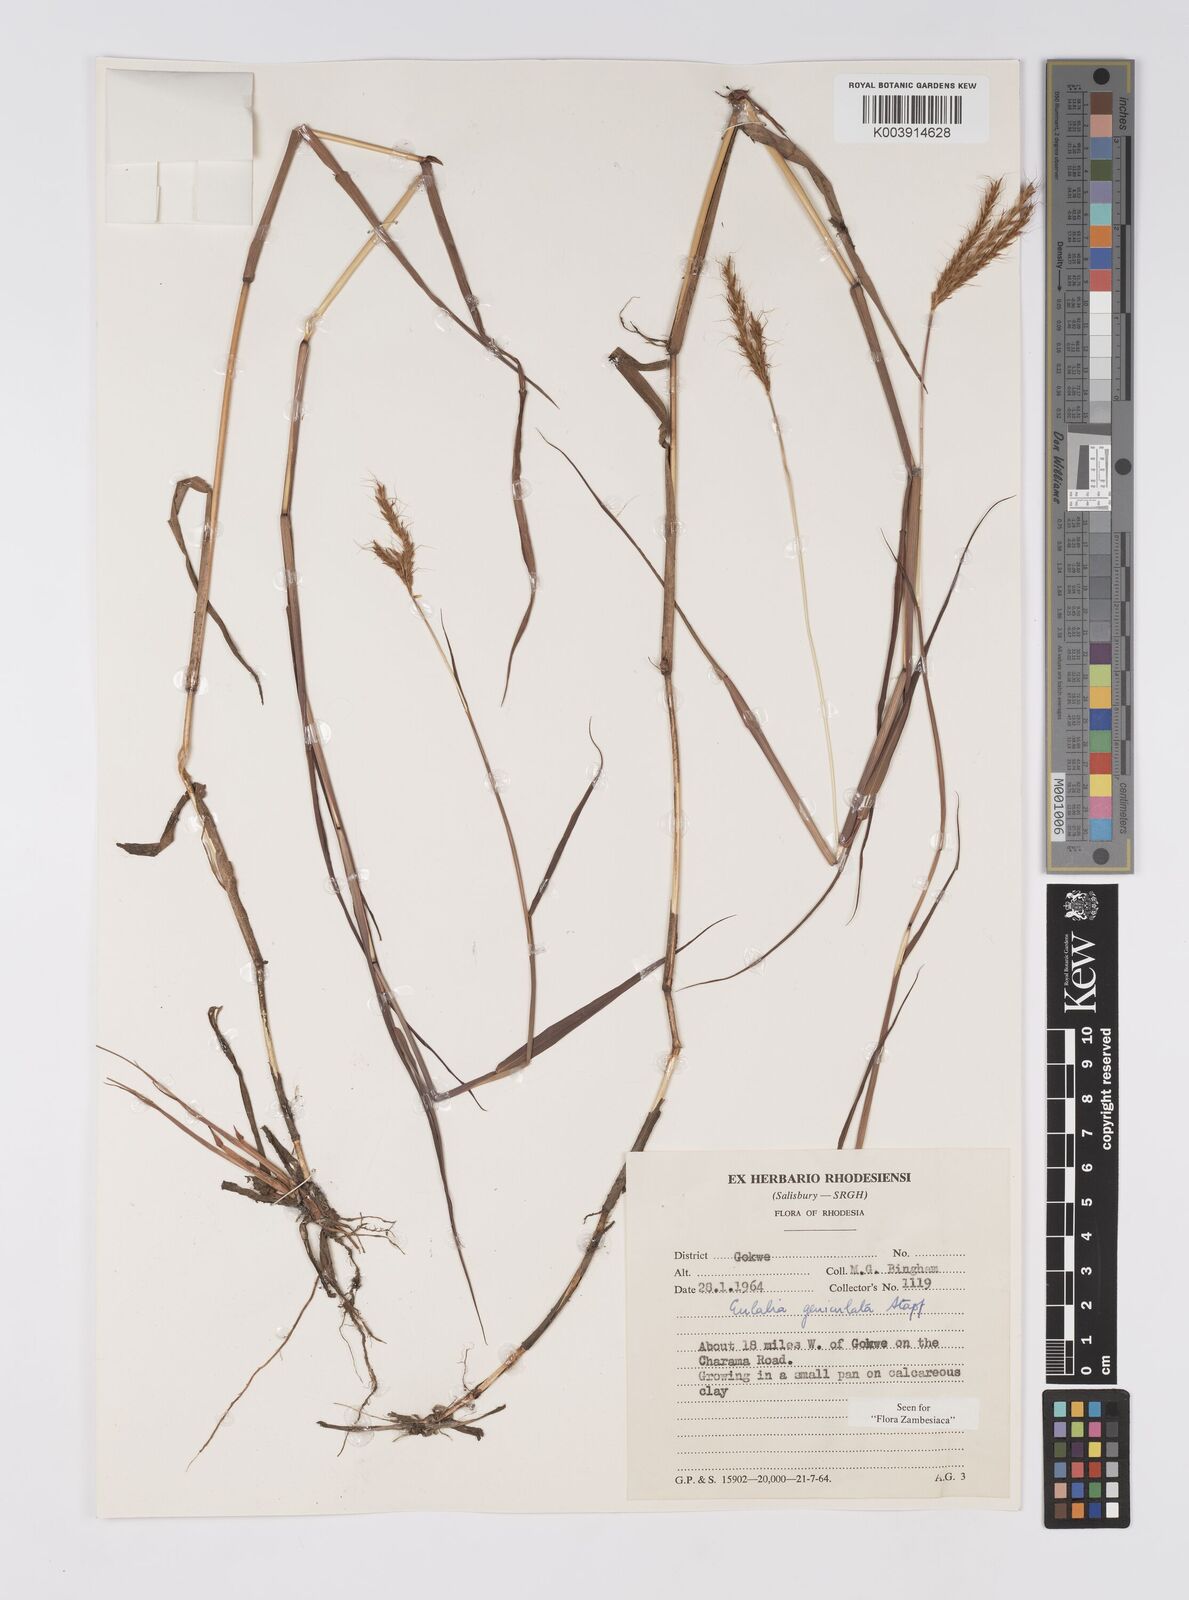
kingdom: Plantae
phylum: Tracheophyta
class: Liliopsida
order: Poales
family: Poaceae
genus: Eulalia
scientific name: Eulalia aurea
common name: Silky browntop
